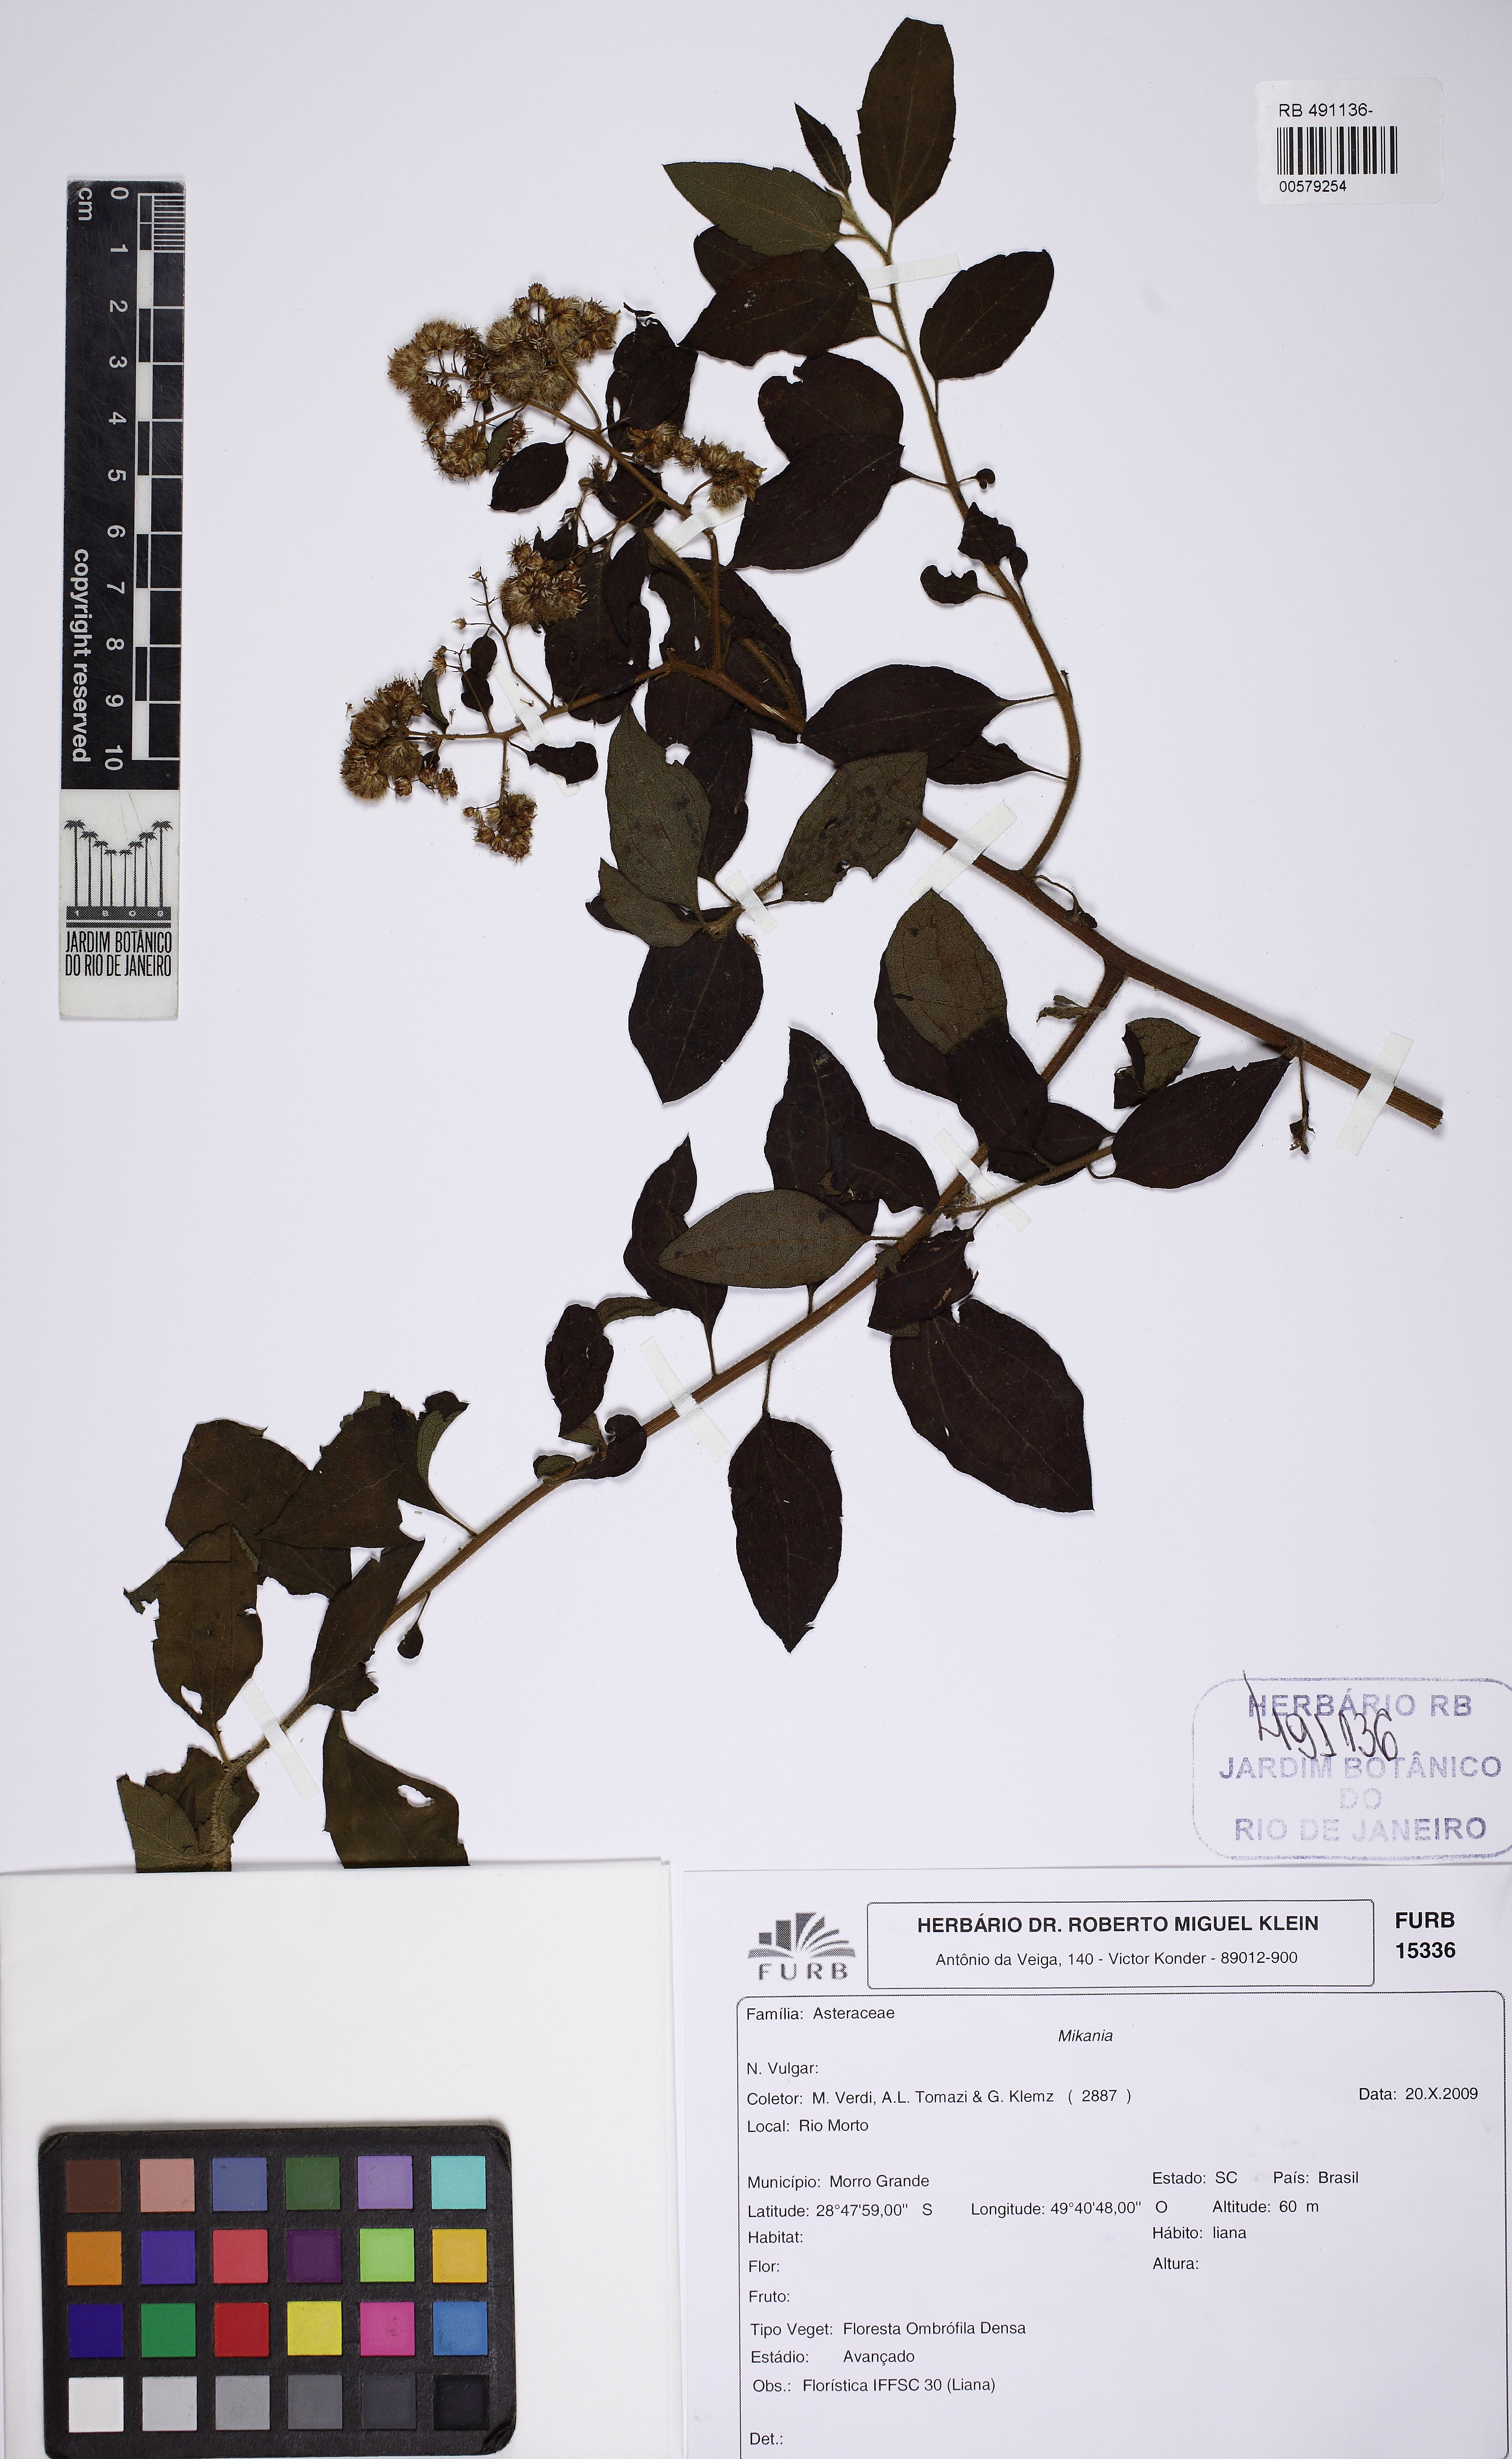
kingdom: Plantae
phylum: Tracheophyta
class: Magnoliopsida
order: Asterales
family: Asteraceae
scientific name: Asteraceae
